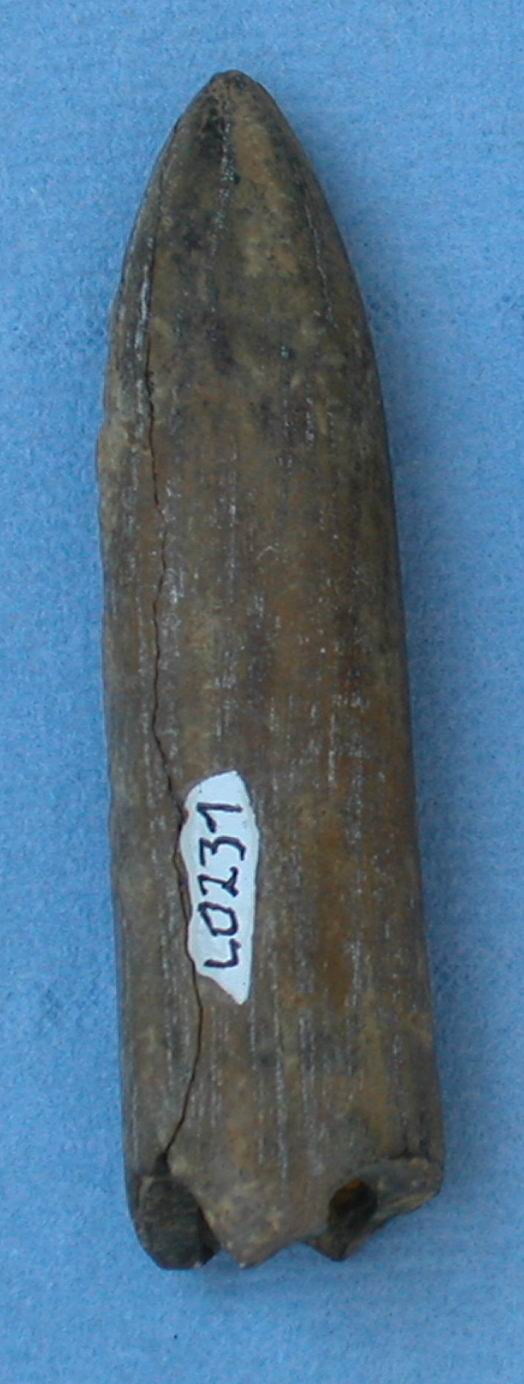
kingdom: Animalia
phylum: Mollusca
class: Cephalopoda
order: Belemnitida
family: Megateuthididae
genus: Acrocoelites
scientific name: Acrocoelites
